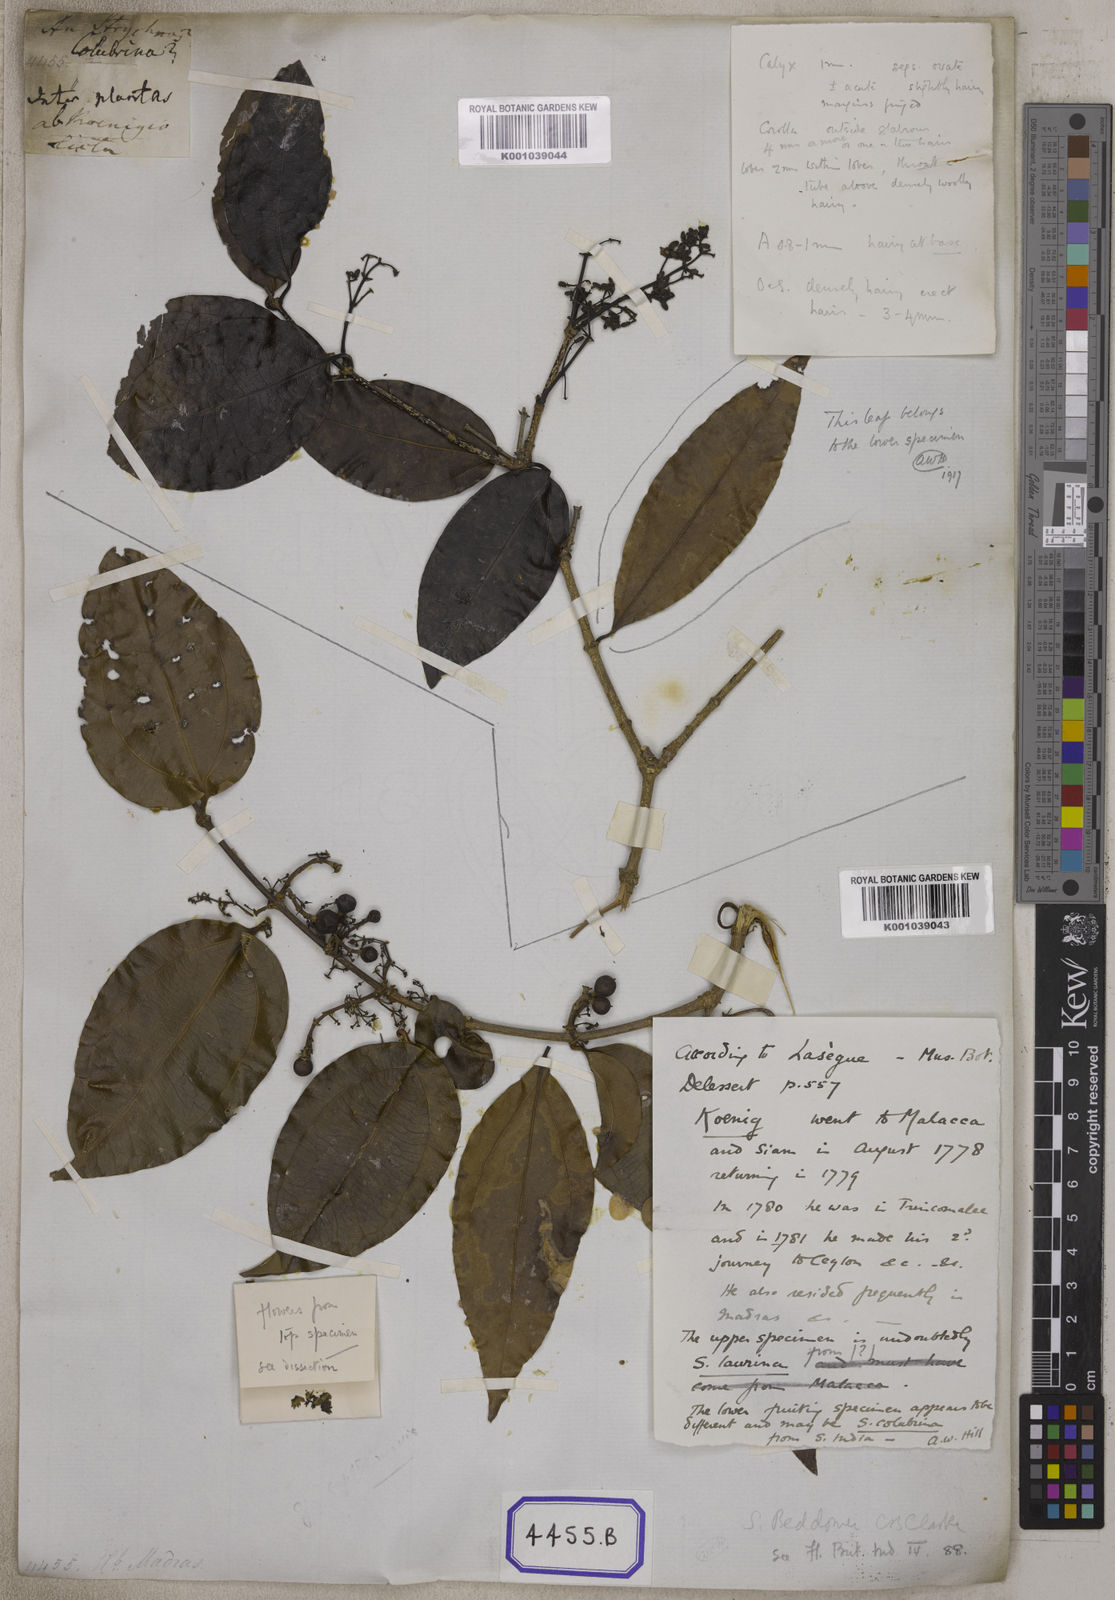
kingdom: Plantae
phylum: Tracheophyta
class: Magnoliopsida
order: Gentianales
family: Loganiaceae
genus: Strychnos
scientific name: Strychnos
